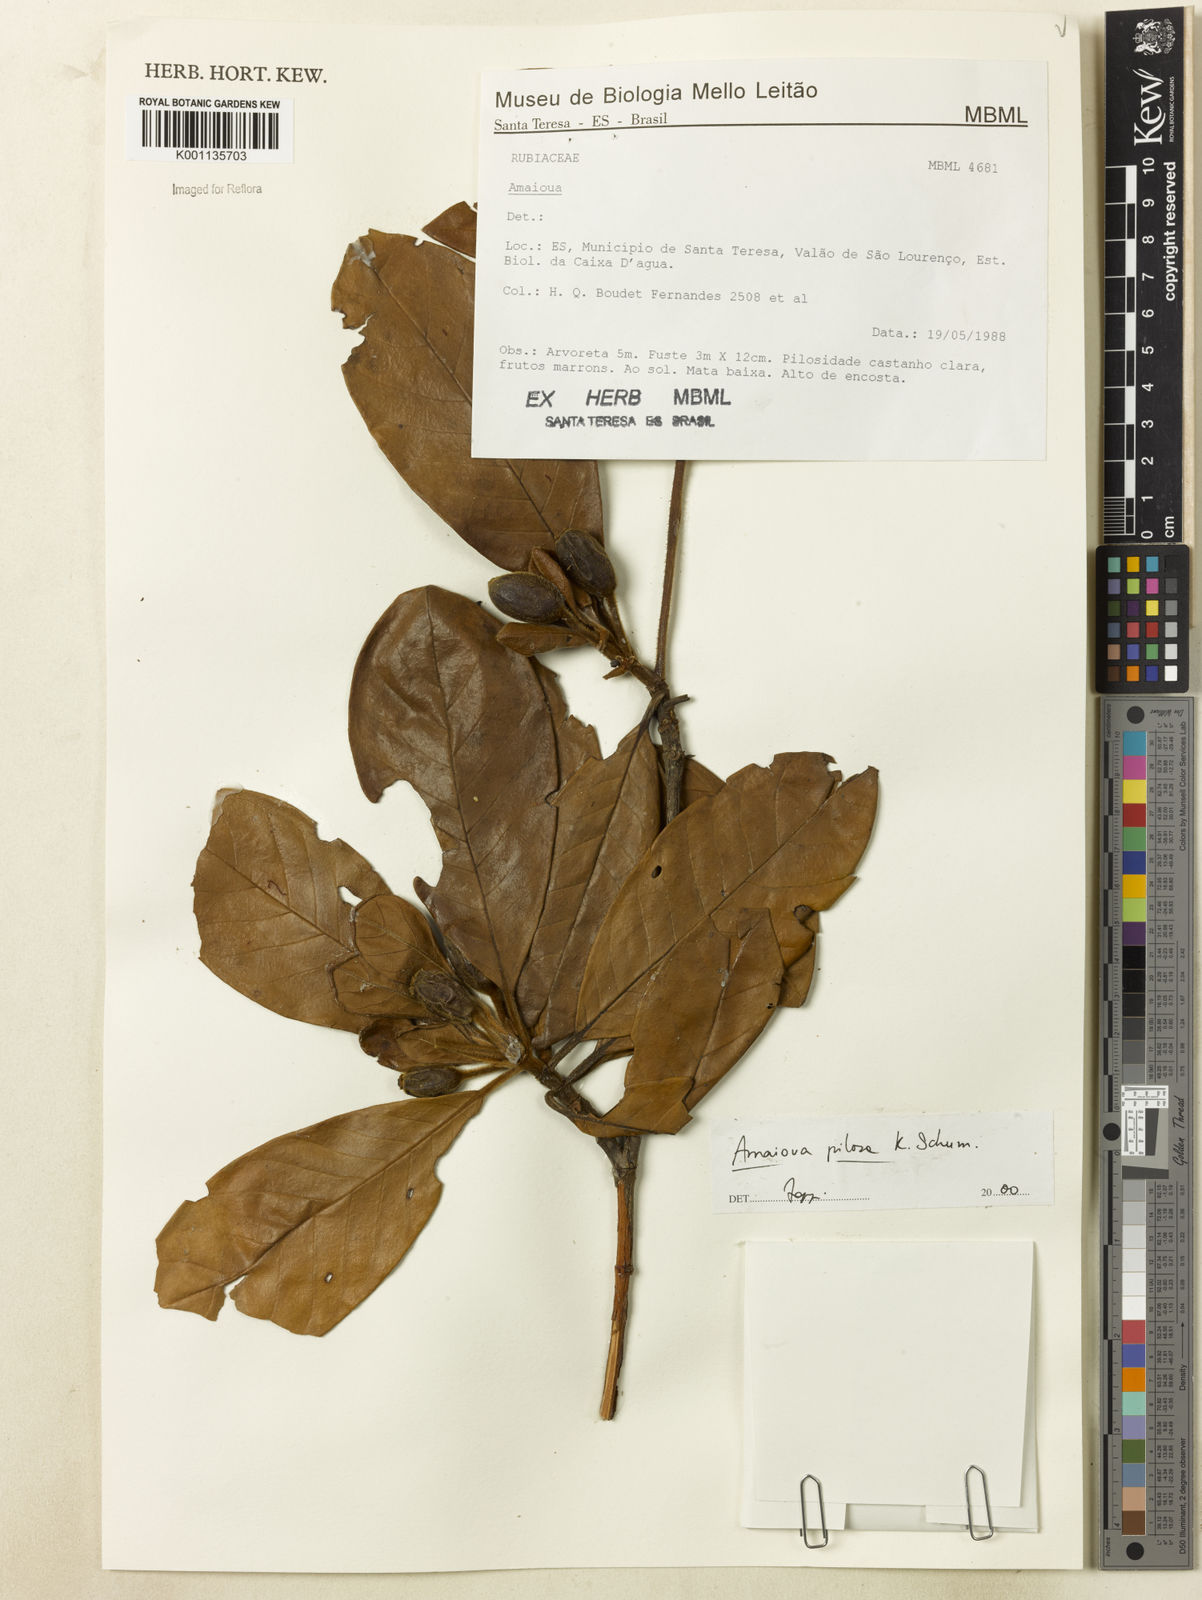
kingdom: Plantae
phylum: Tracheophyta
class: Magnoliopsida
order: Gentianales
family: Rubiaceae
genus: Amaioua
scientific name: Amaioua pilosa
